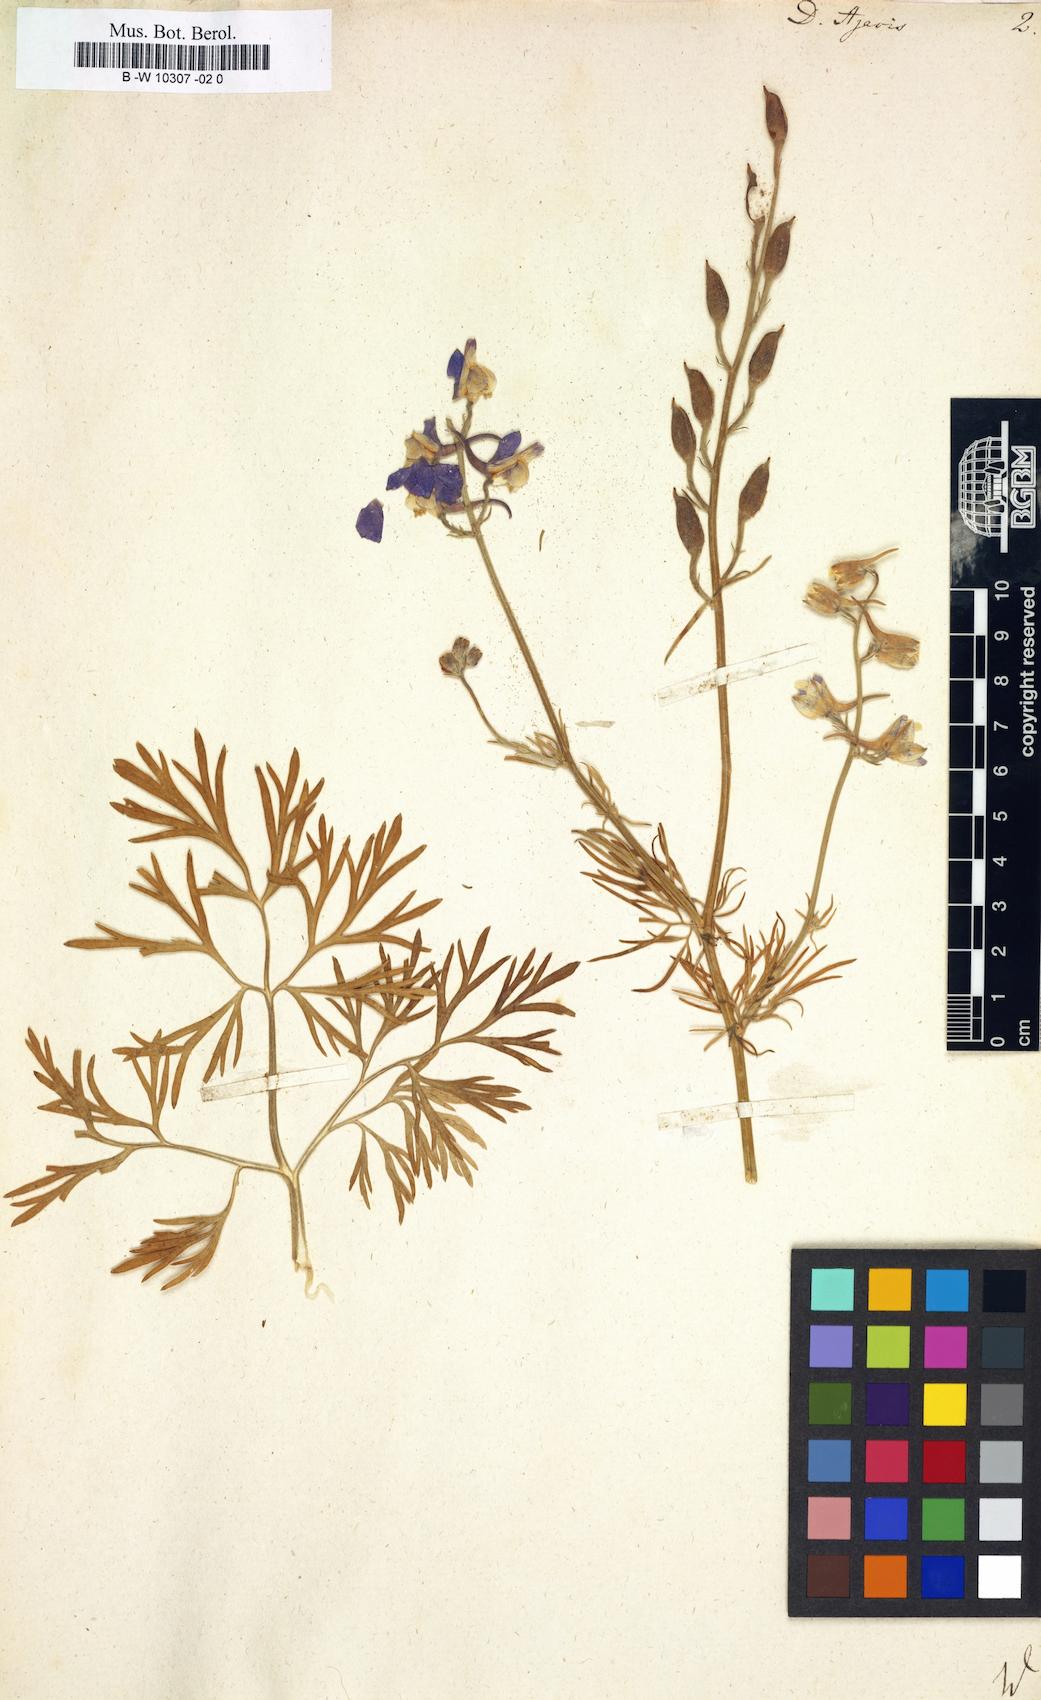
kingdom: Plantae
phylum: Tracheophyta
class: Magnoliopsida
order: Ranunculales
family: Ranunculaceae
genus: Delphinium
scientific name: Delphinium ajacis
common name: Doubtful knight's-spur
